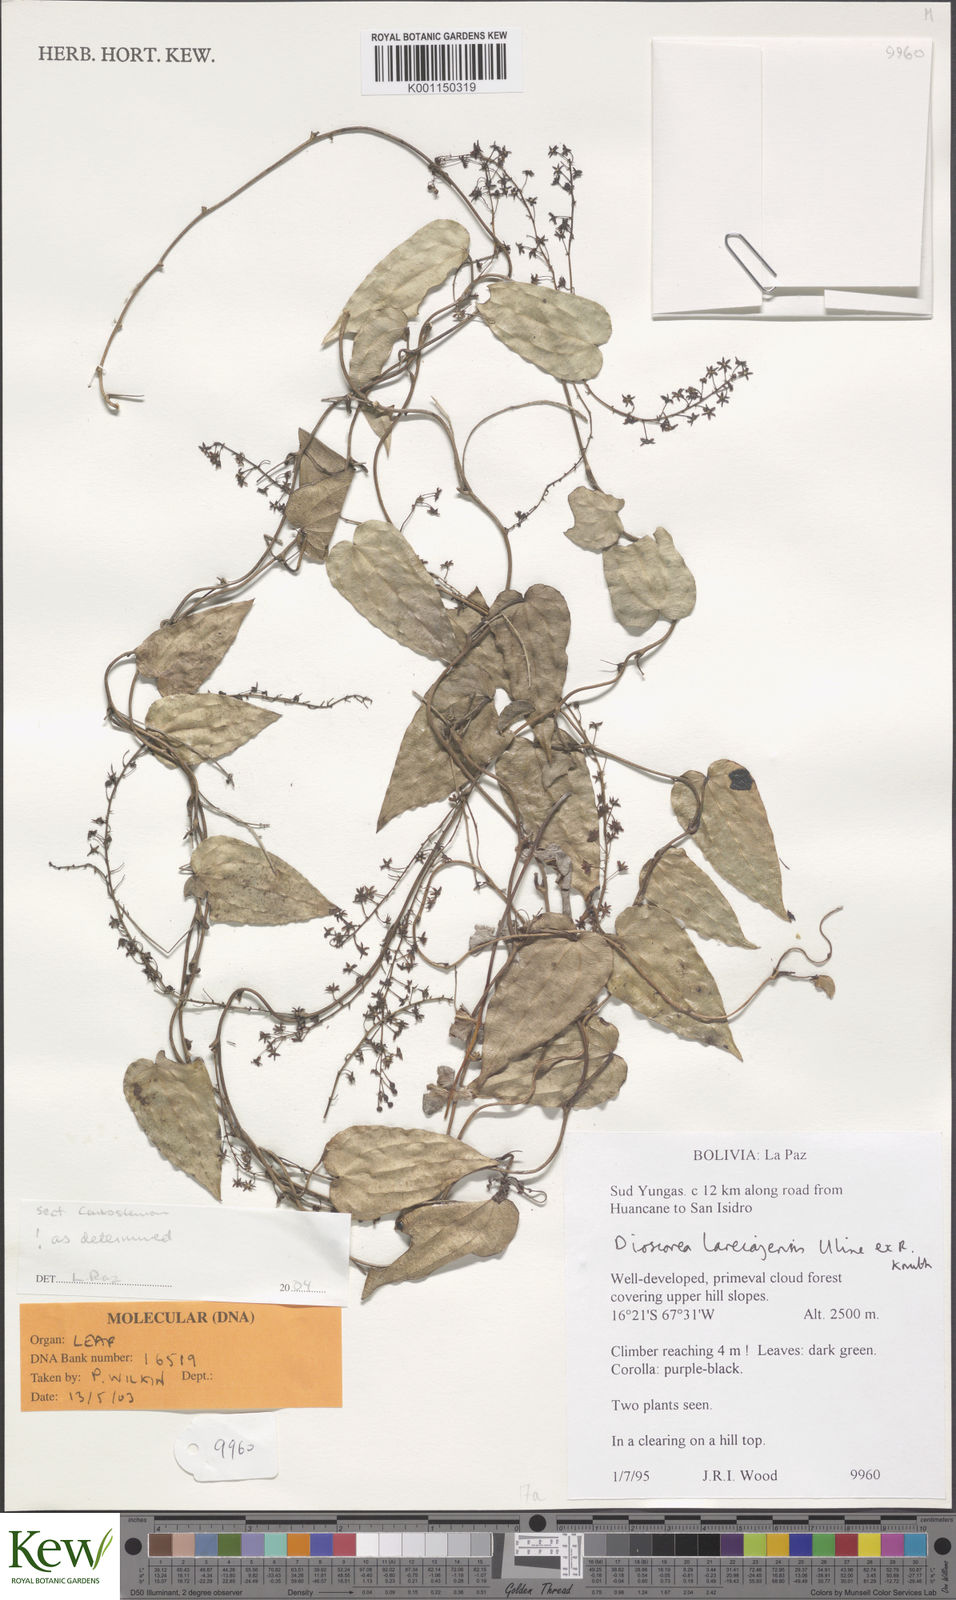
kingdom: Plantae
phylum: Tracheophyta
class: Liliopsida
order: Dioscoreales
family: Dioscoreaceae
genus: Dioscorea
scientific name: Dioscorea piperifolia
